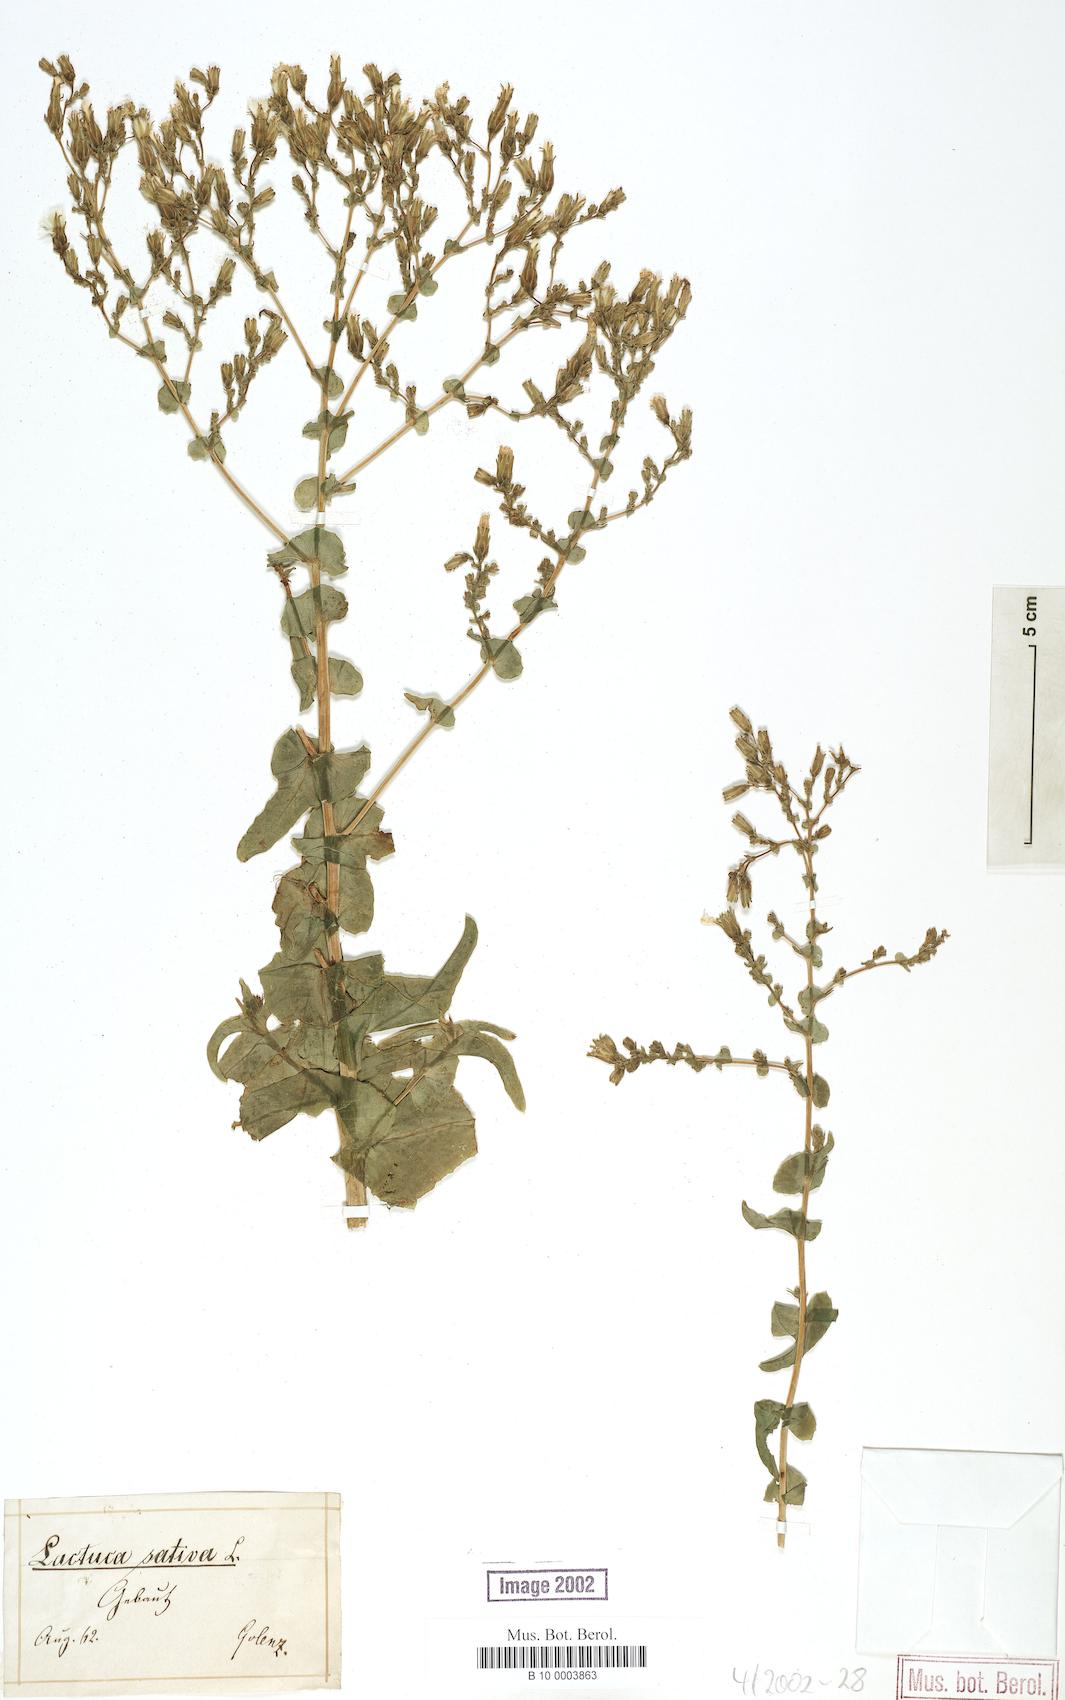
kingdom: Plantae
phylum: Tracheophyta
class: Magnoliopsida
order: Asterales
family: Asteraceae
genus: Lactuca
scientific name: Lactuca sativa
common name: Garden lettuce
